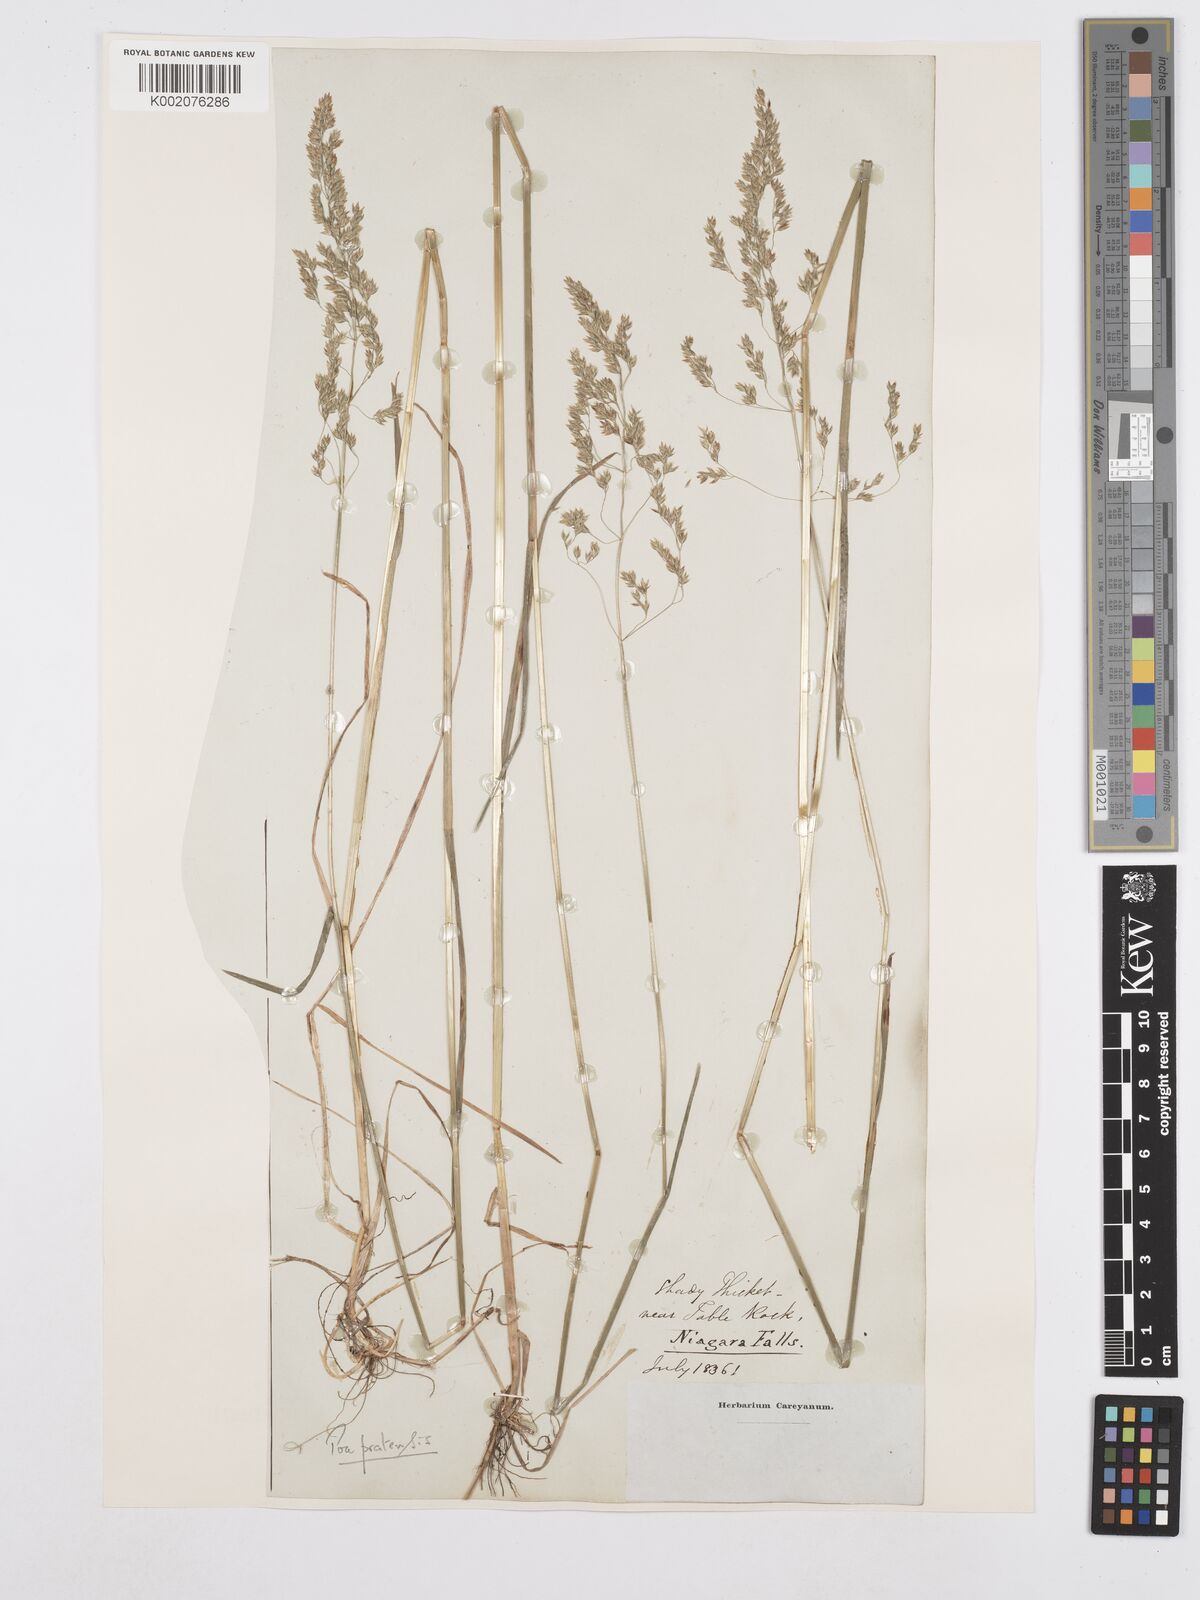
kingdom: Plantae
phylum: Tracheophyta
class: Liliopsida
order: Poales
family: Poaceae
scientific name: Poaceae
